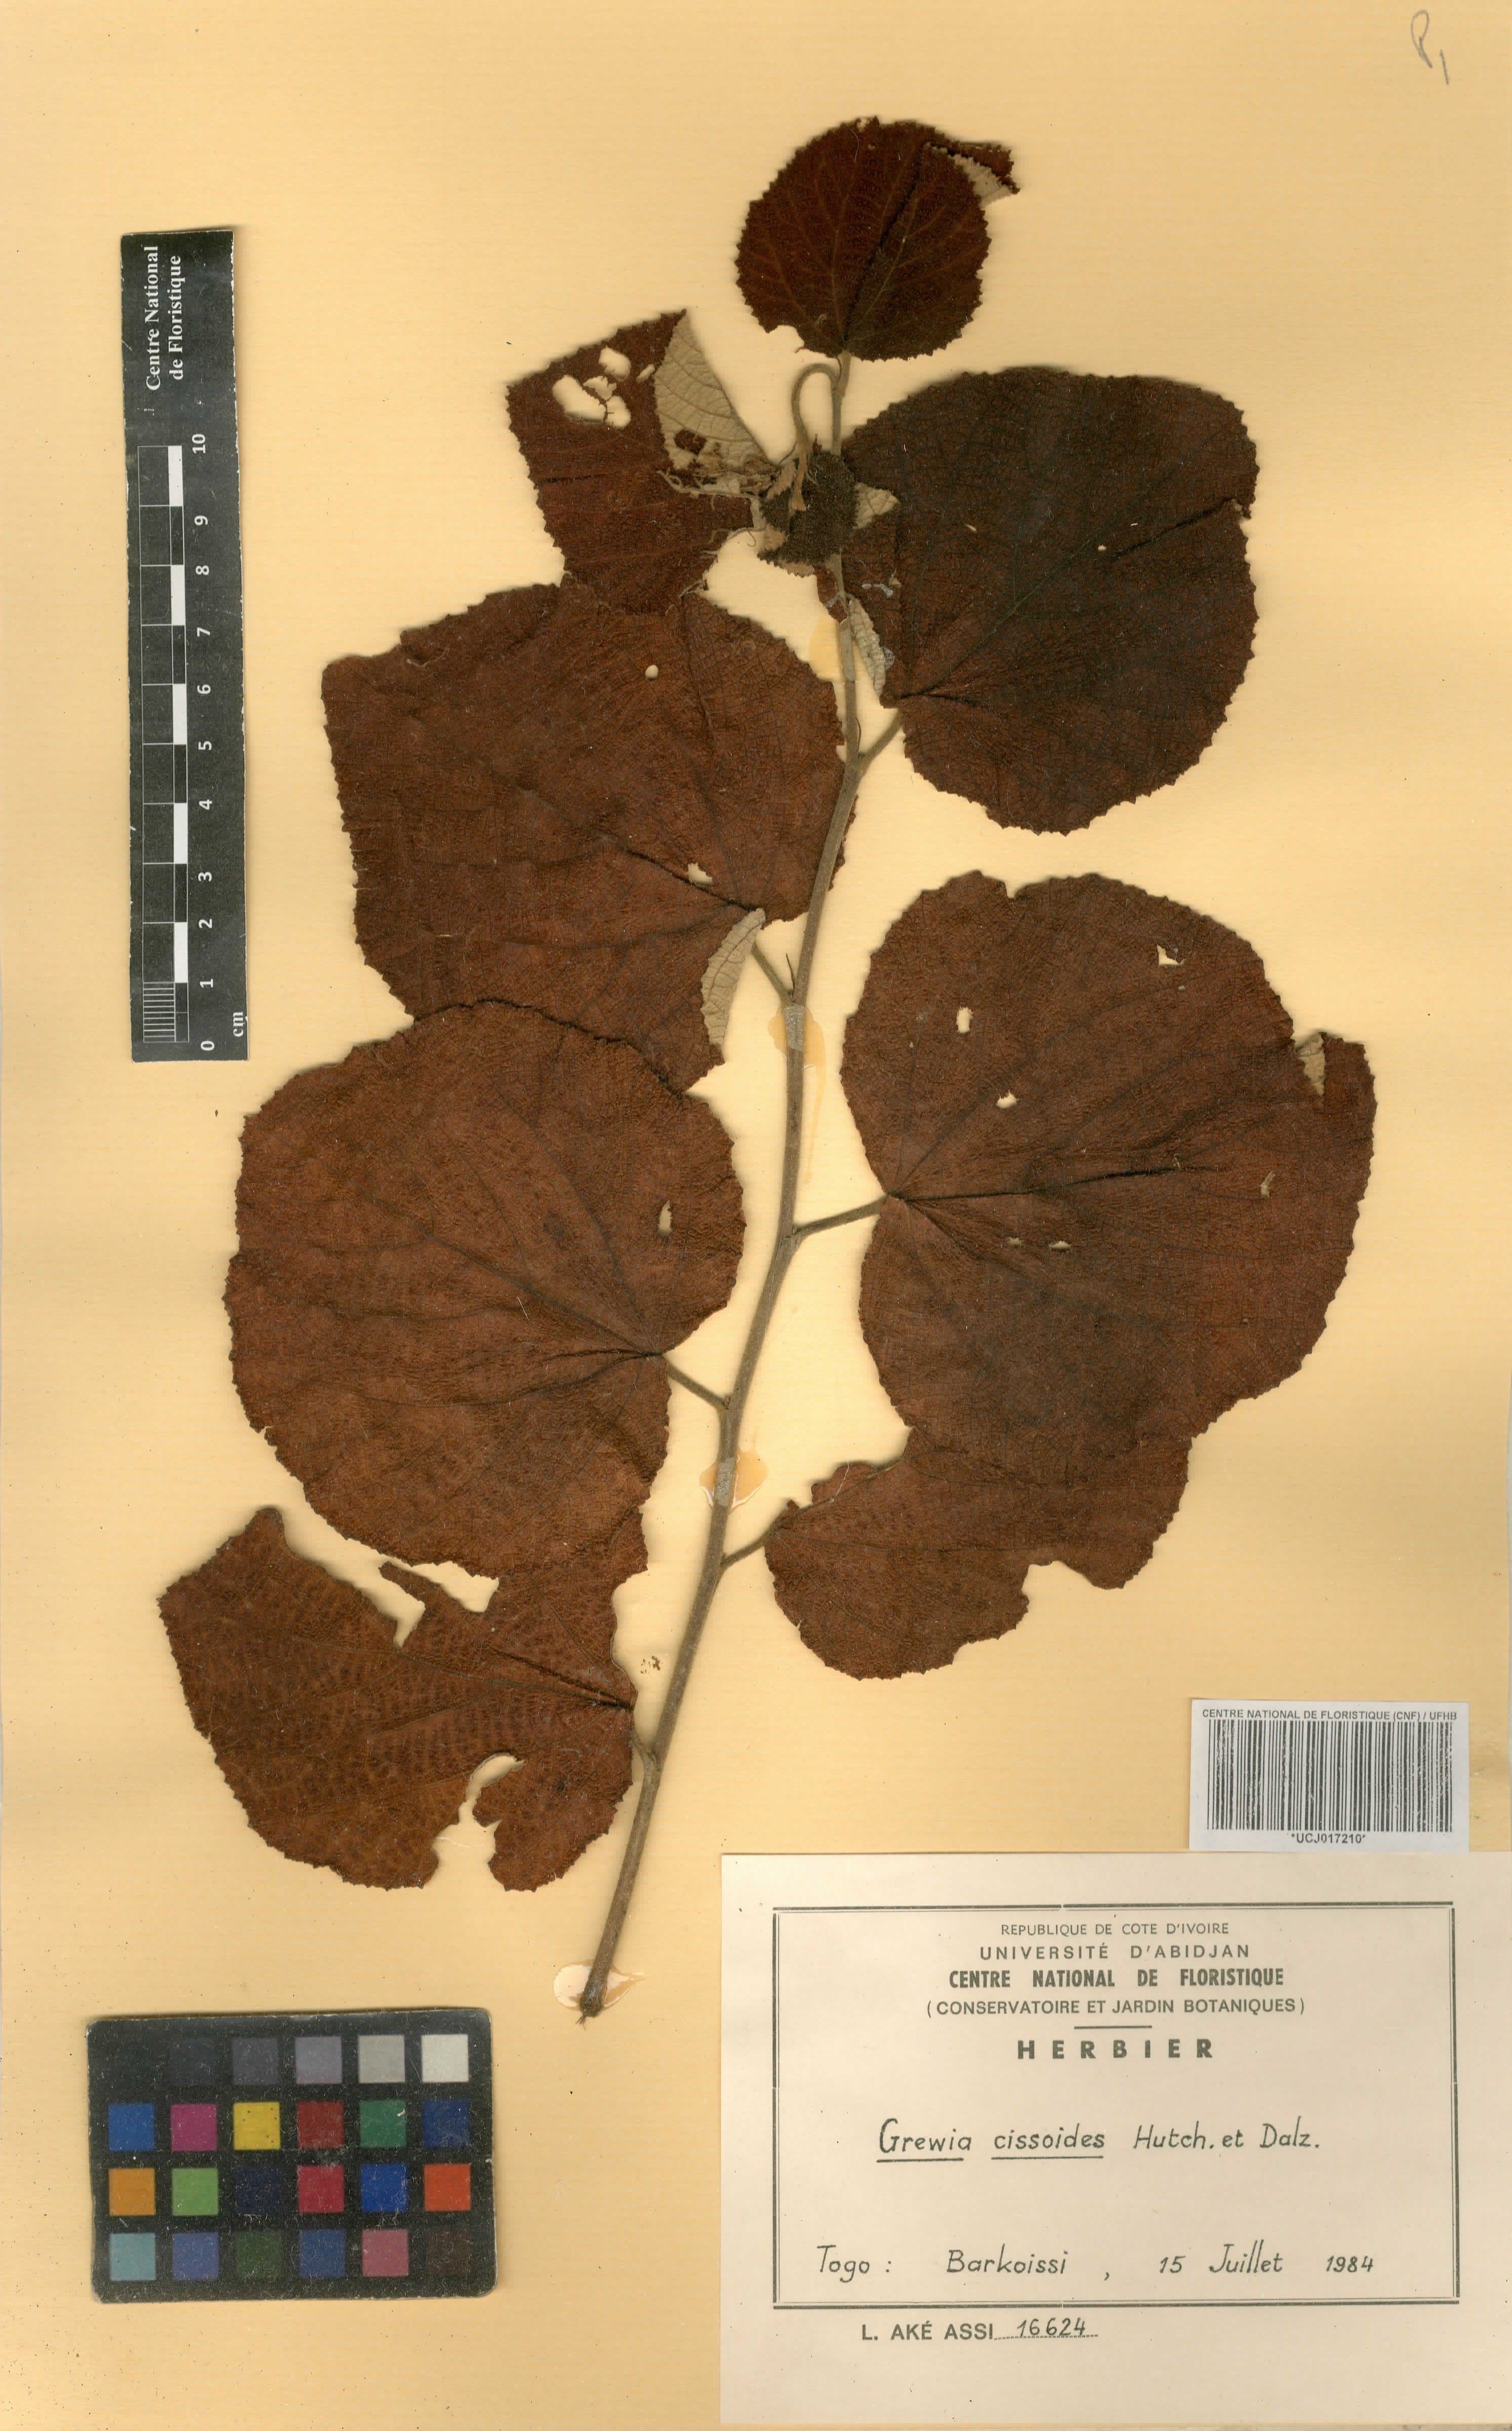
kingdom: Plantae
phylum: Tracheophyta
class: Magnoliopsida
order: Malvales
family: Malvaceae
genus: Grewia
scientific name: Grewia cissoides
